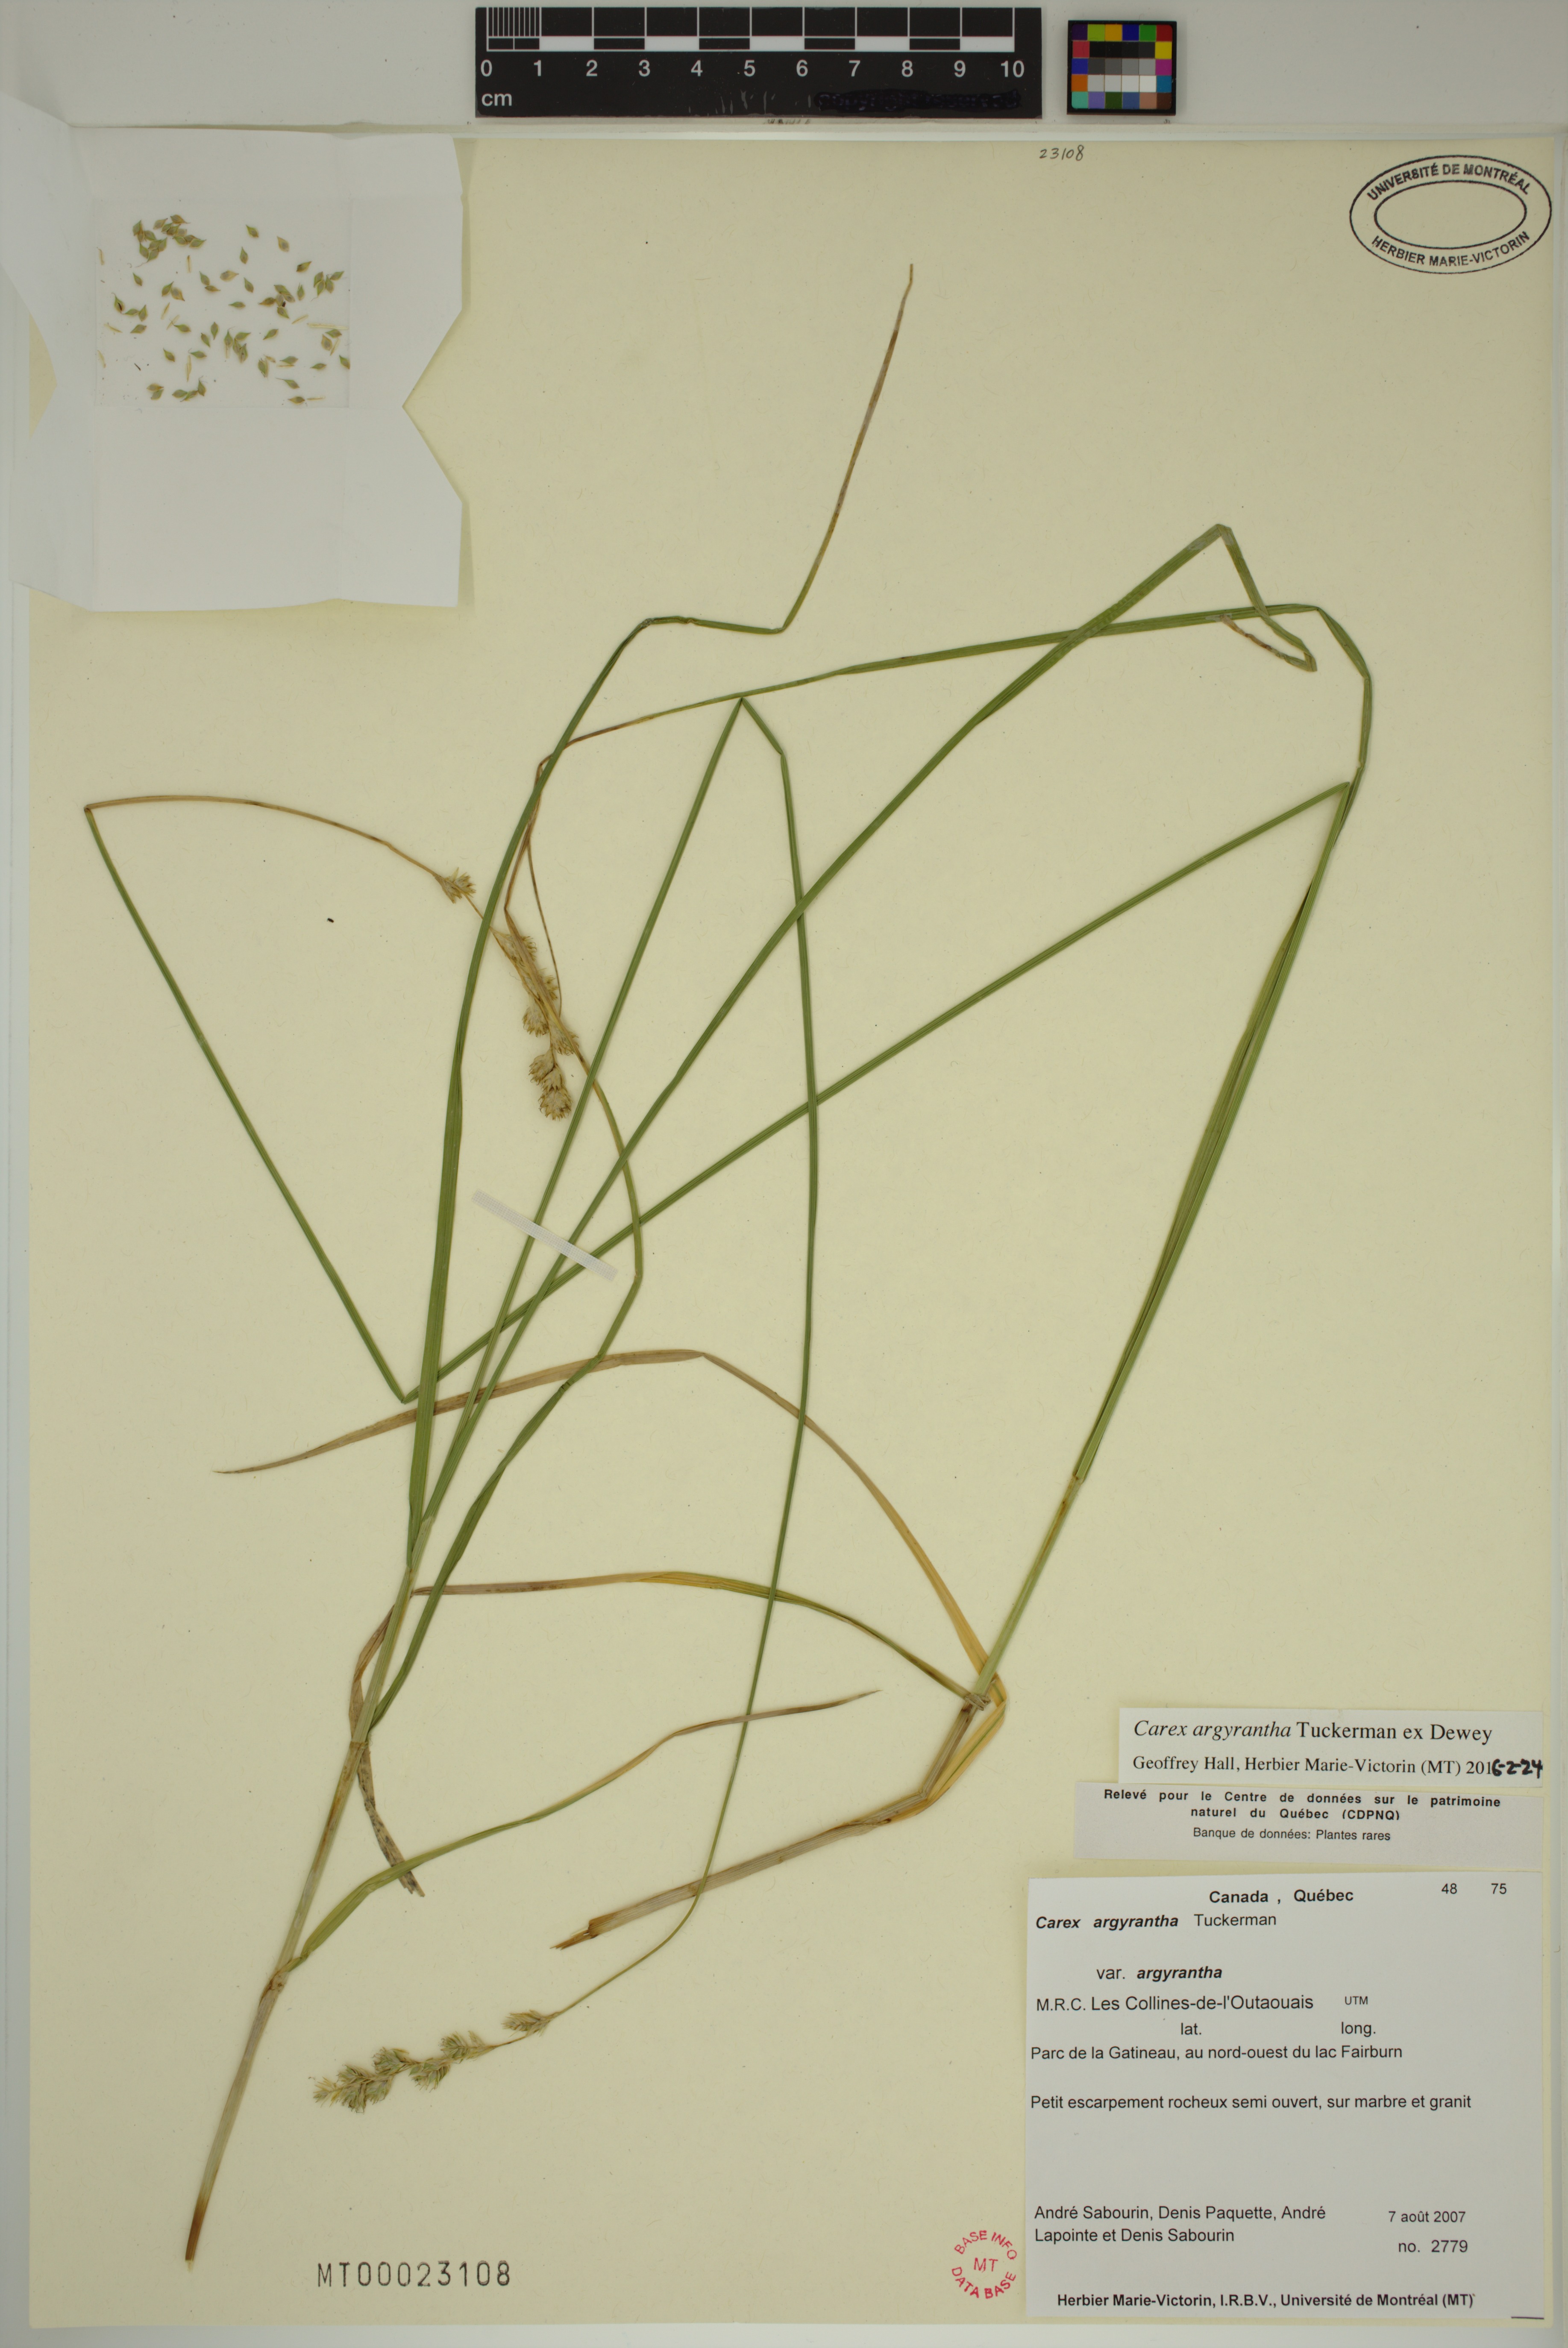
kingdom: Plantae
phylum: Tracheophyta
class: Liliopsida
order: Poales
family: Cyperaceae
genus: Carex
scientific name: Carex argyrantha
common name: Silvery-flowered sedge
